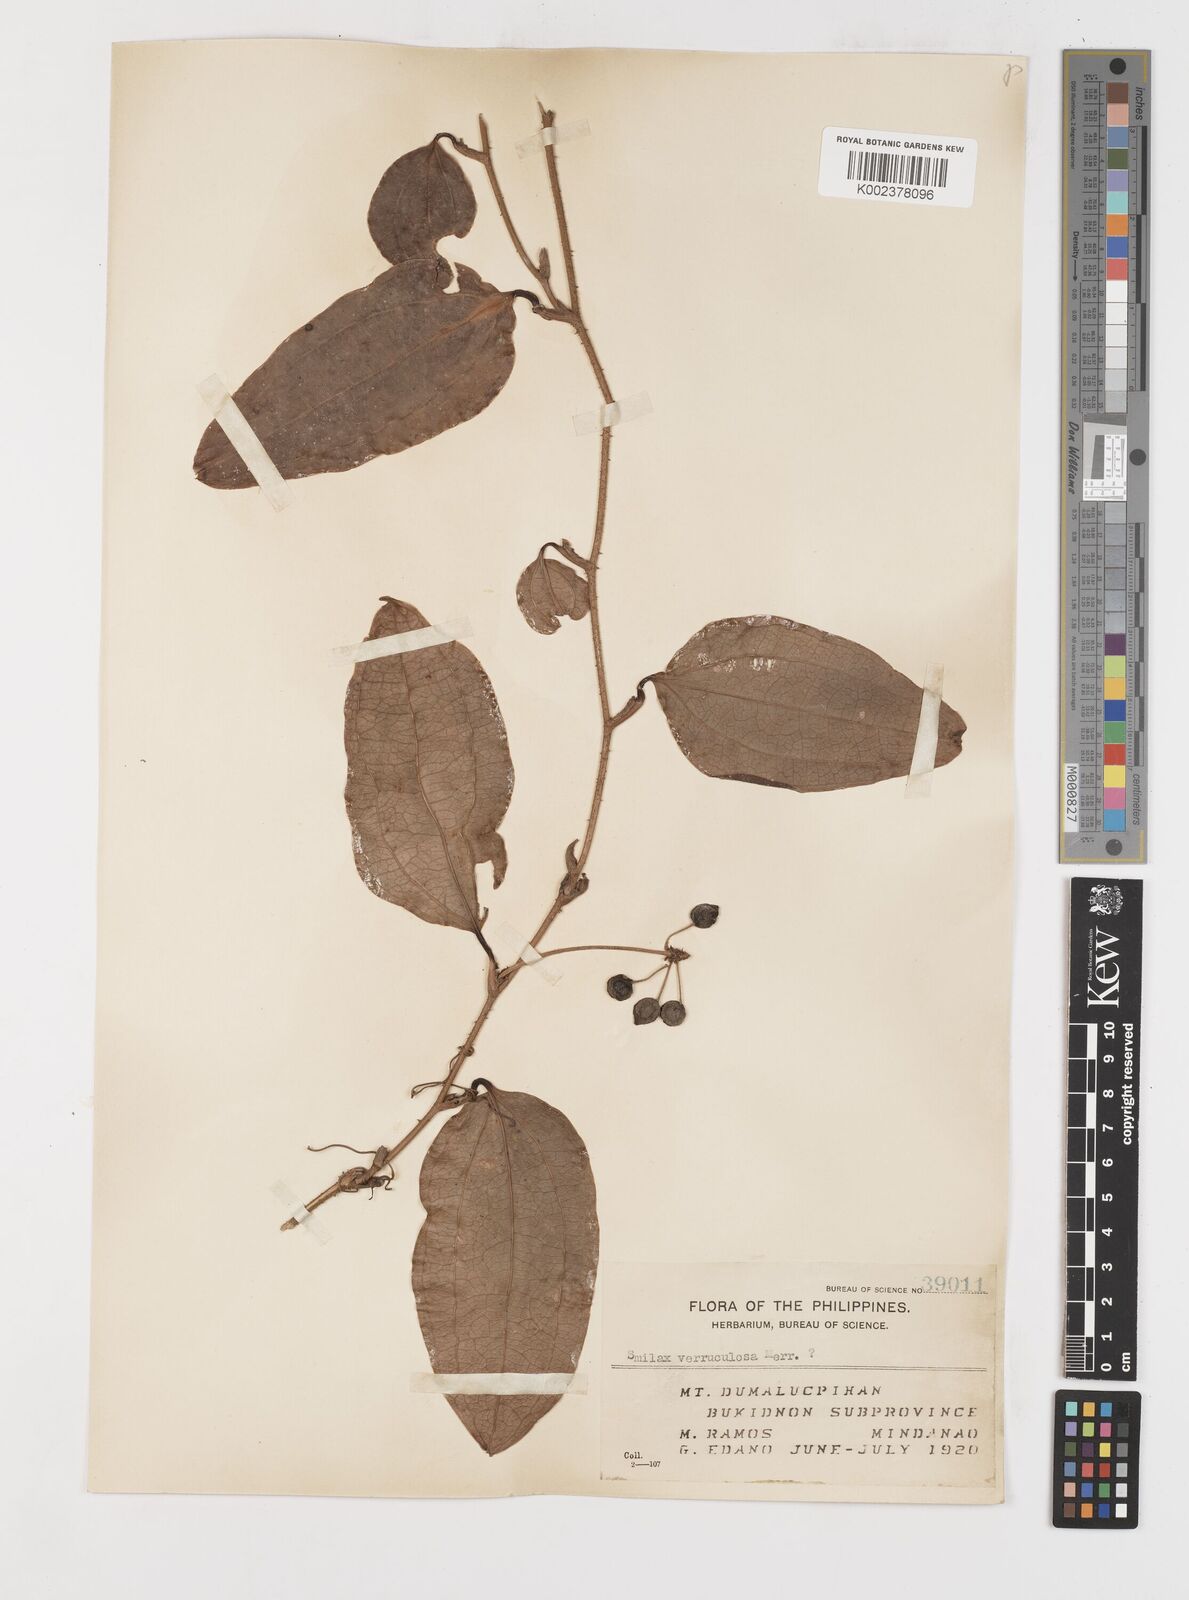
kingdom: Plantae
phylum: Tracheophyta
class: Liliopsida
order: Liliales
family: Smilacaceae
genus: Smilax
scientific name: Smilax aspericaulis
